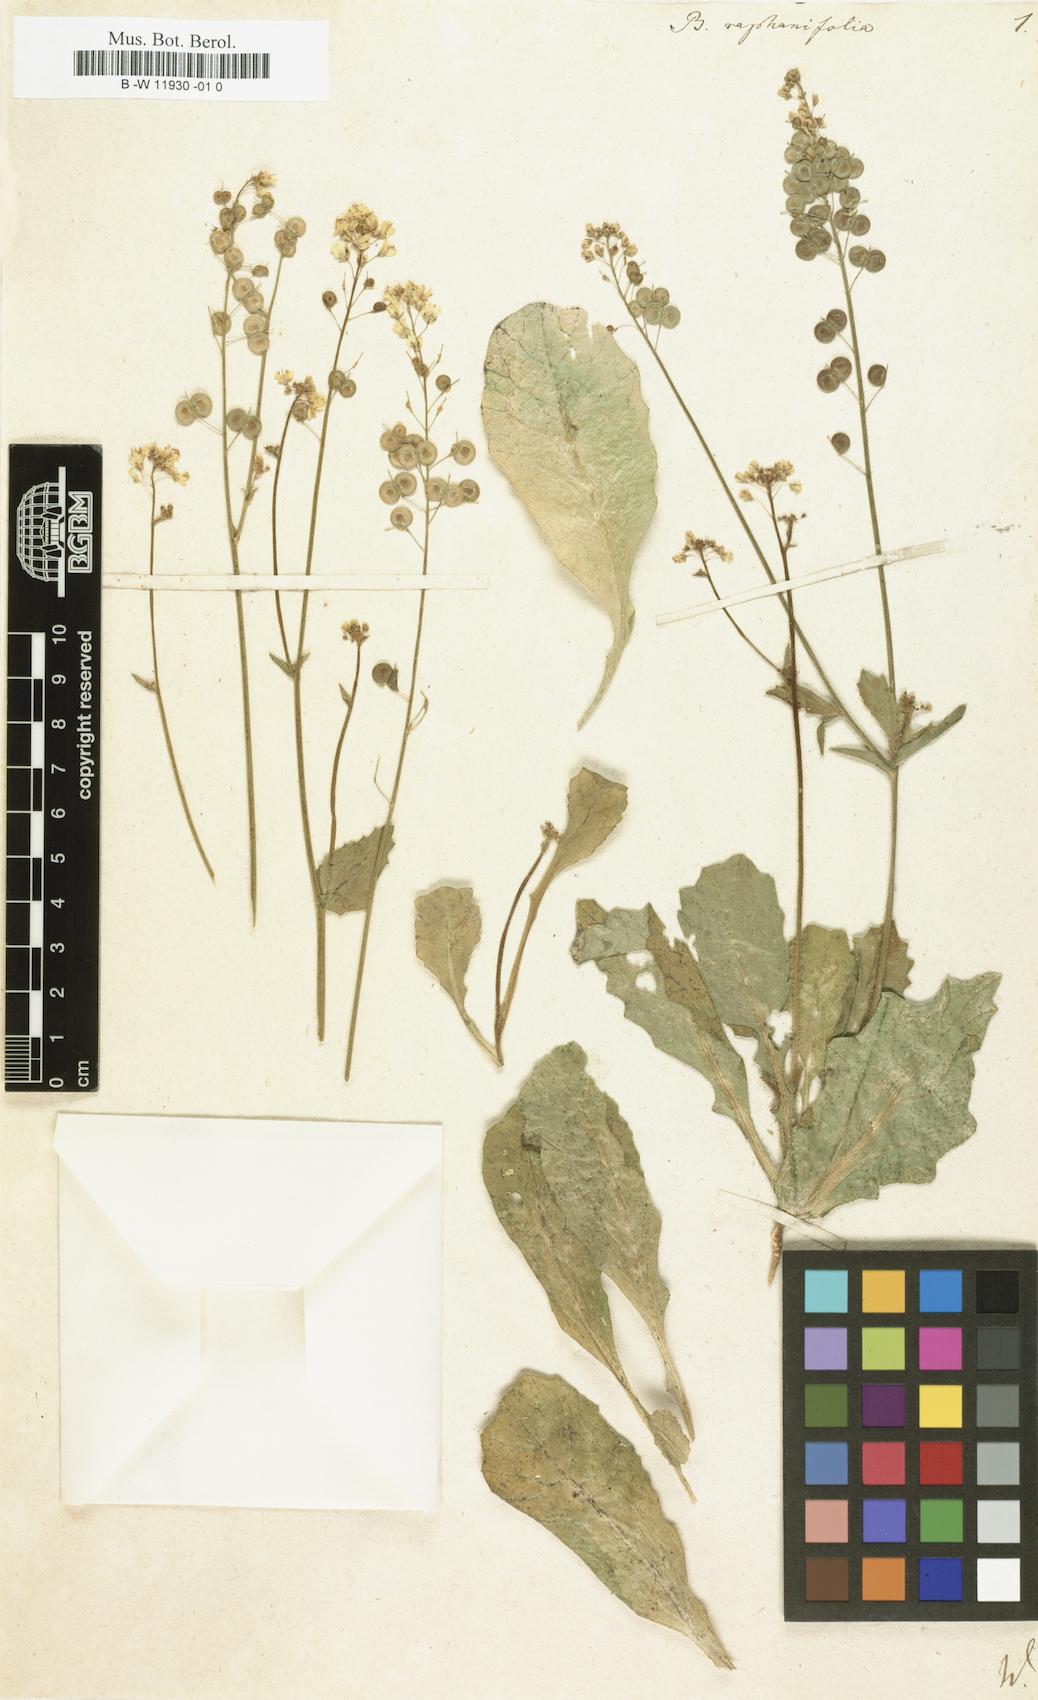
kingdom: Plantae
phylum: Tracheophyta
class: Magnoliopsida
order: Brassicales
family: Brassicaceae
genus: Biscutella
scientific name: Biscutella raphanifolia
